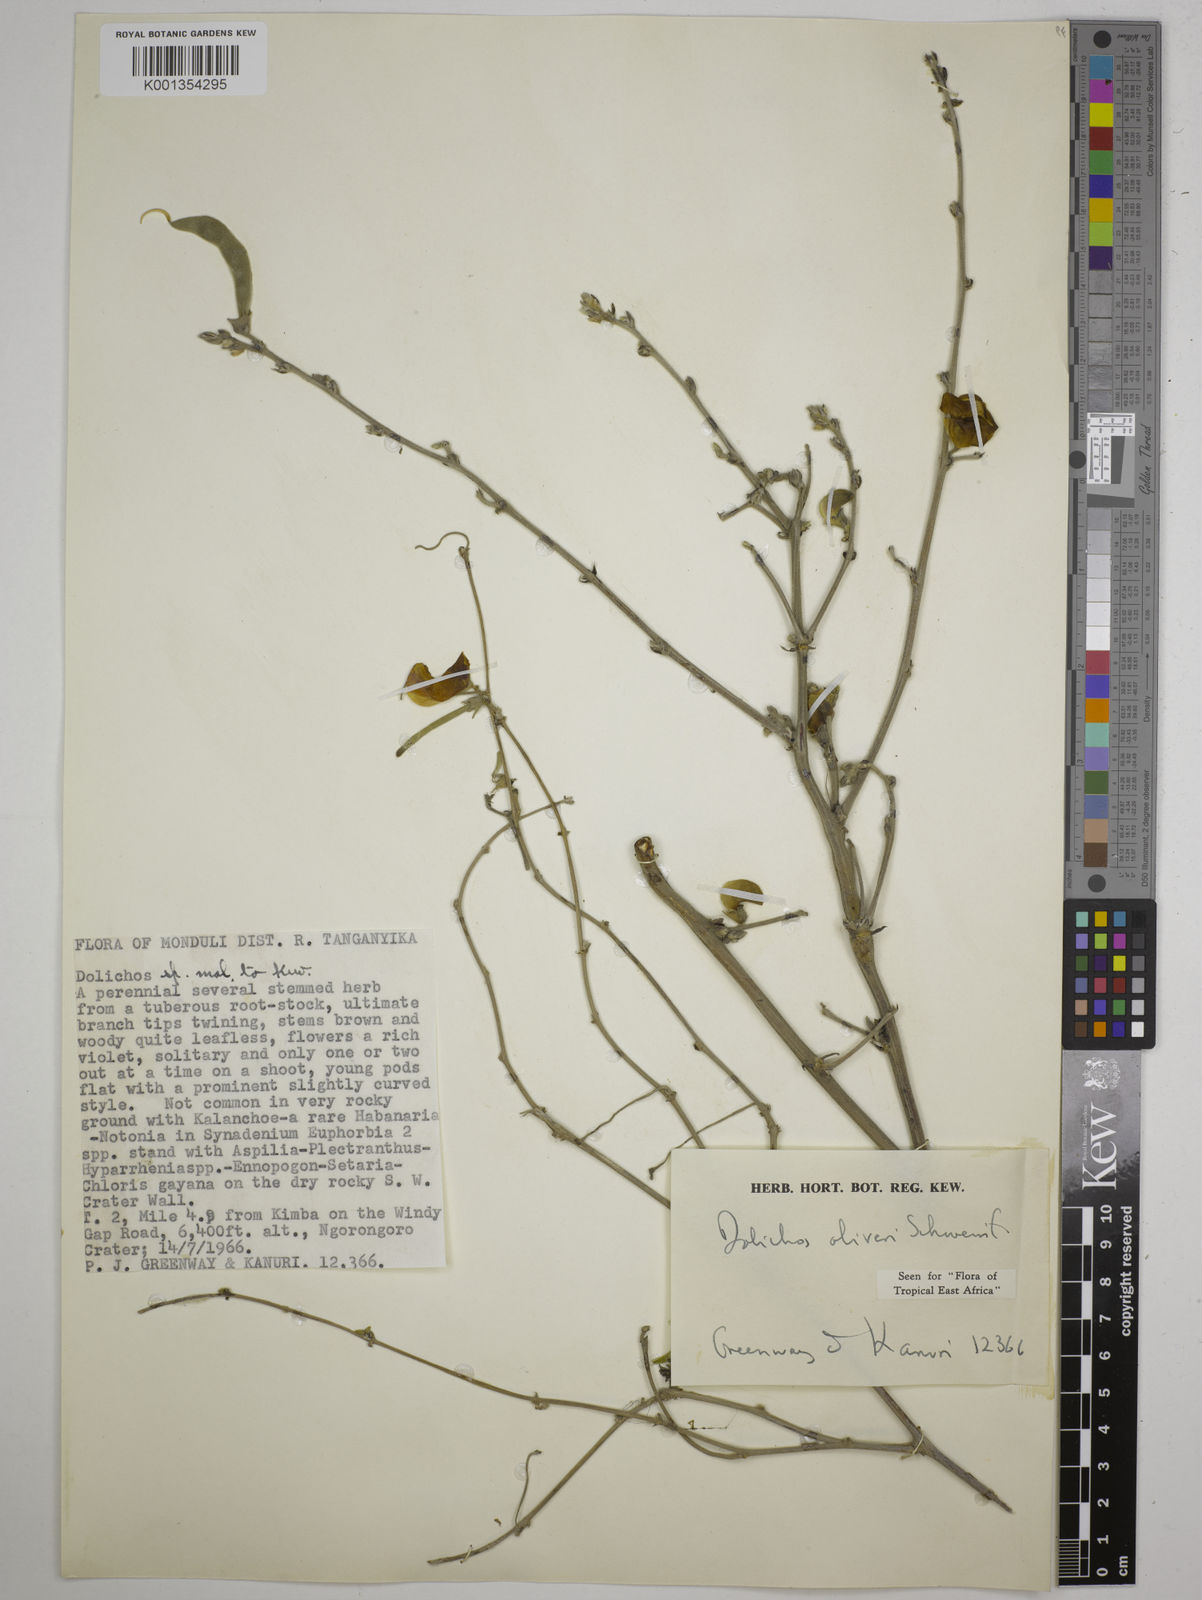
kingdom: Plantae
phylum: Tracheophyta
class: Magnoliopsida
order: Fabales
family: Fabaceae
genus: Dolichos
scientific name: Dolichos oliveri
